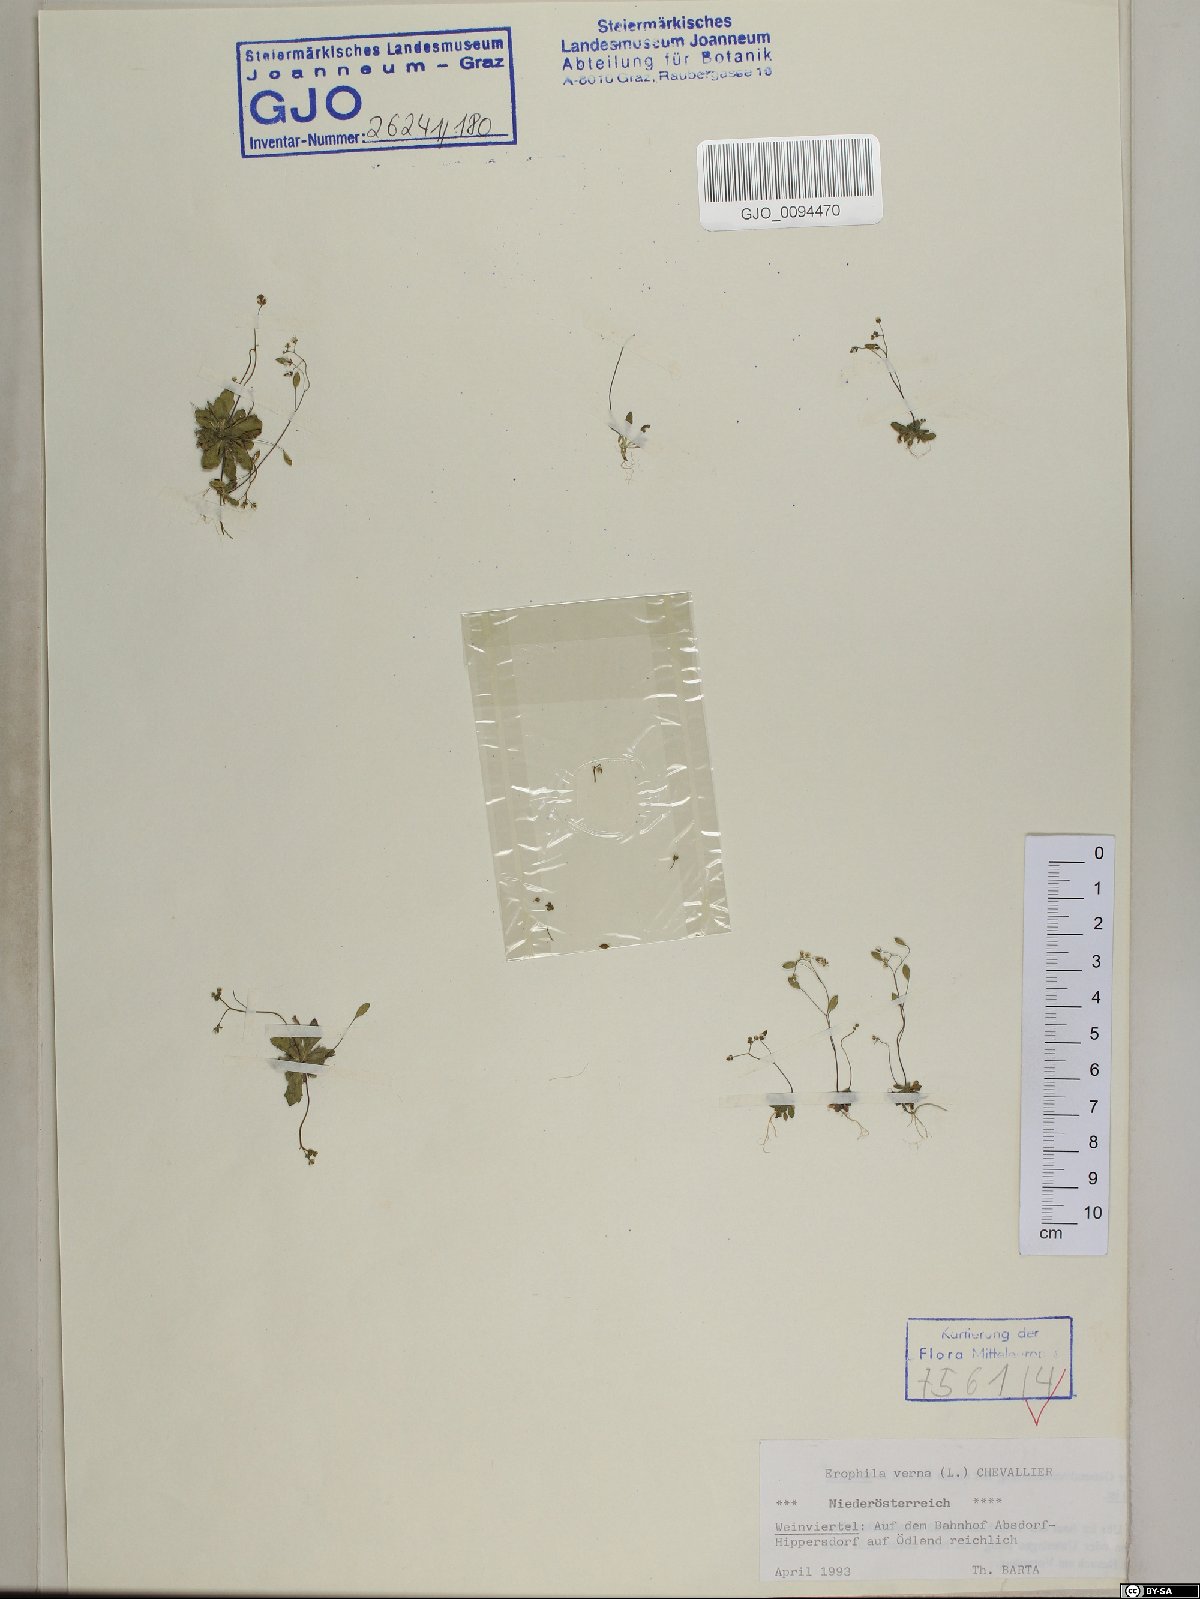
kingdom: Plantae
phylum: Tracheophyta
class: Magnoliopsida
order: Brassicales
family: Brassicaceae
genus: Draba
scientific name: Draba verna
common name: Spring draba
